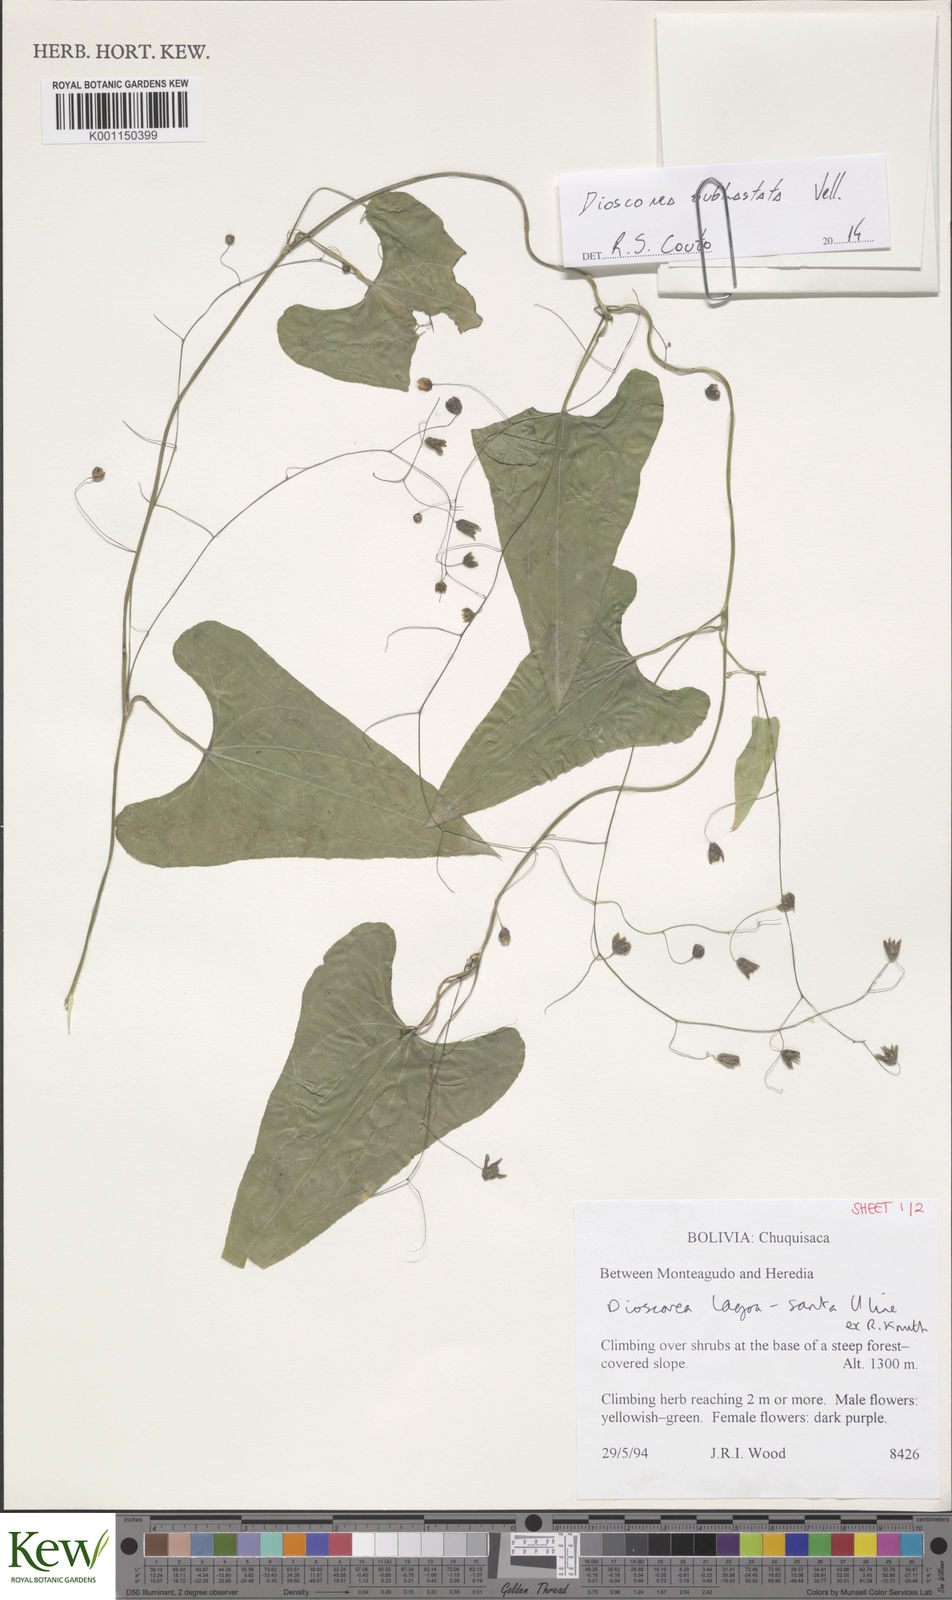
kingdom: Plantae
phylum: Tracheophyta
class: Liliopsida
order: Dioscoreales
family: Dioscoreaceae
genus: Dioscorea
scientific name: Dioscorea subhastata
